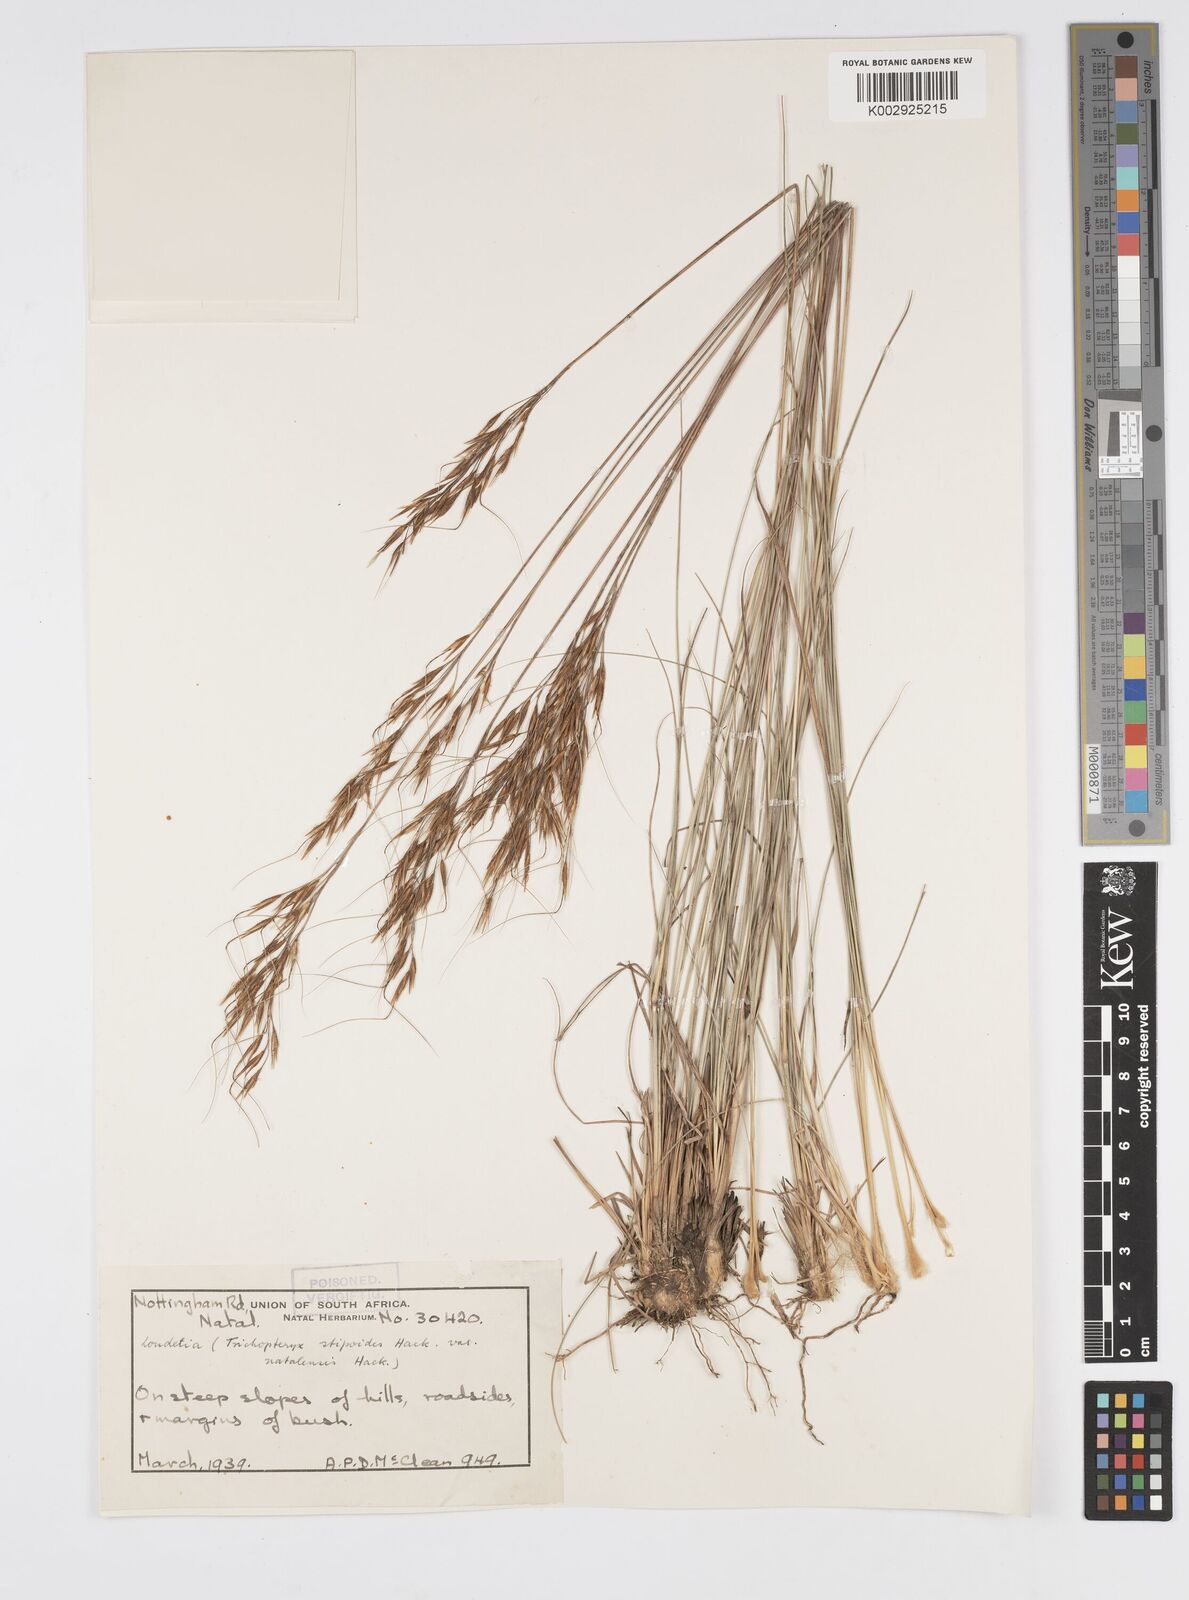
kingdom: Plantae
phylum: Tracheophyta
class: Liliopsida
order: Poales
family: Poaceae
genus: Loudetia
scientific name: Loudetia simplex
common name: Common russet grass
